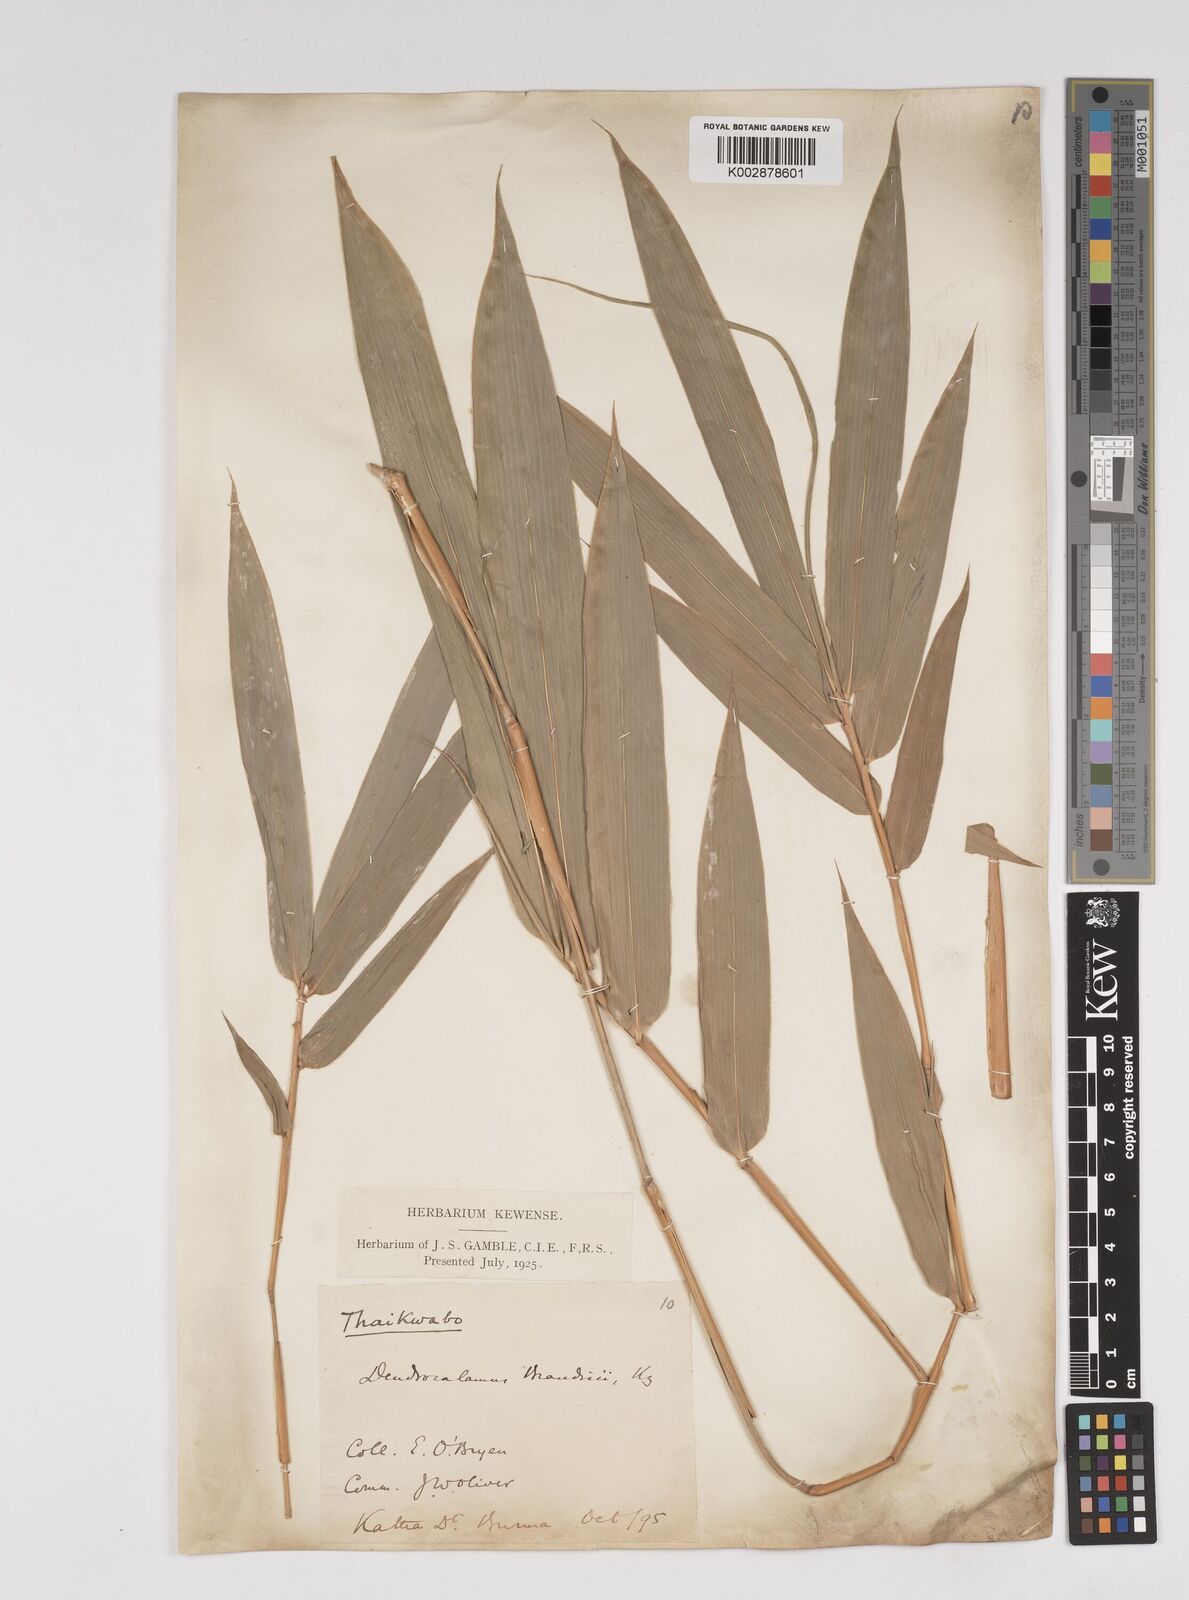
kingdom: Plantae
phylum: Tracheophyta
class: Liliopsida
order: Poales
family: Poaceae
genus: Dendrocalamus
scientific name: Dendrocalamus brandisii
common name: Velvetleaf bamboo
